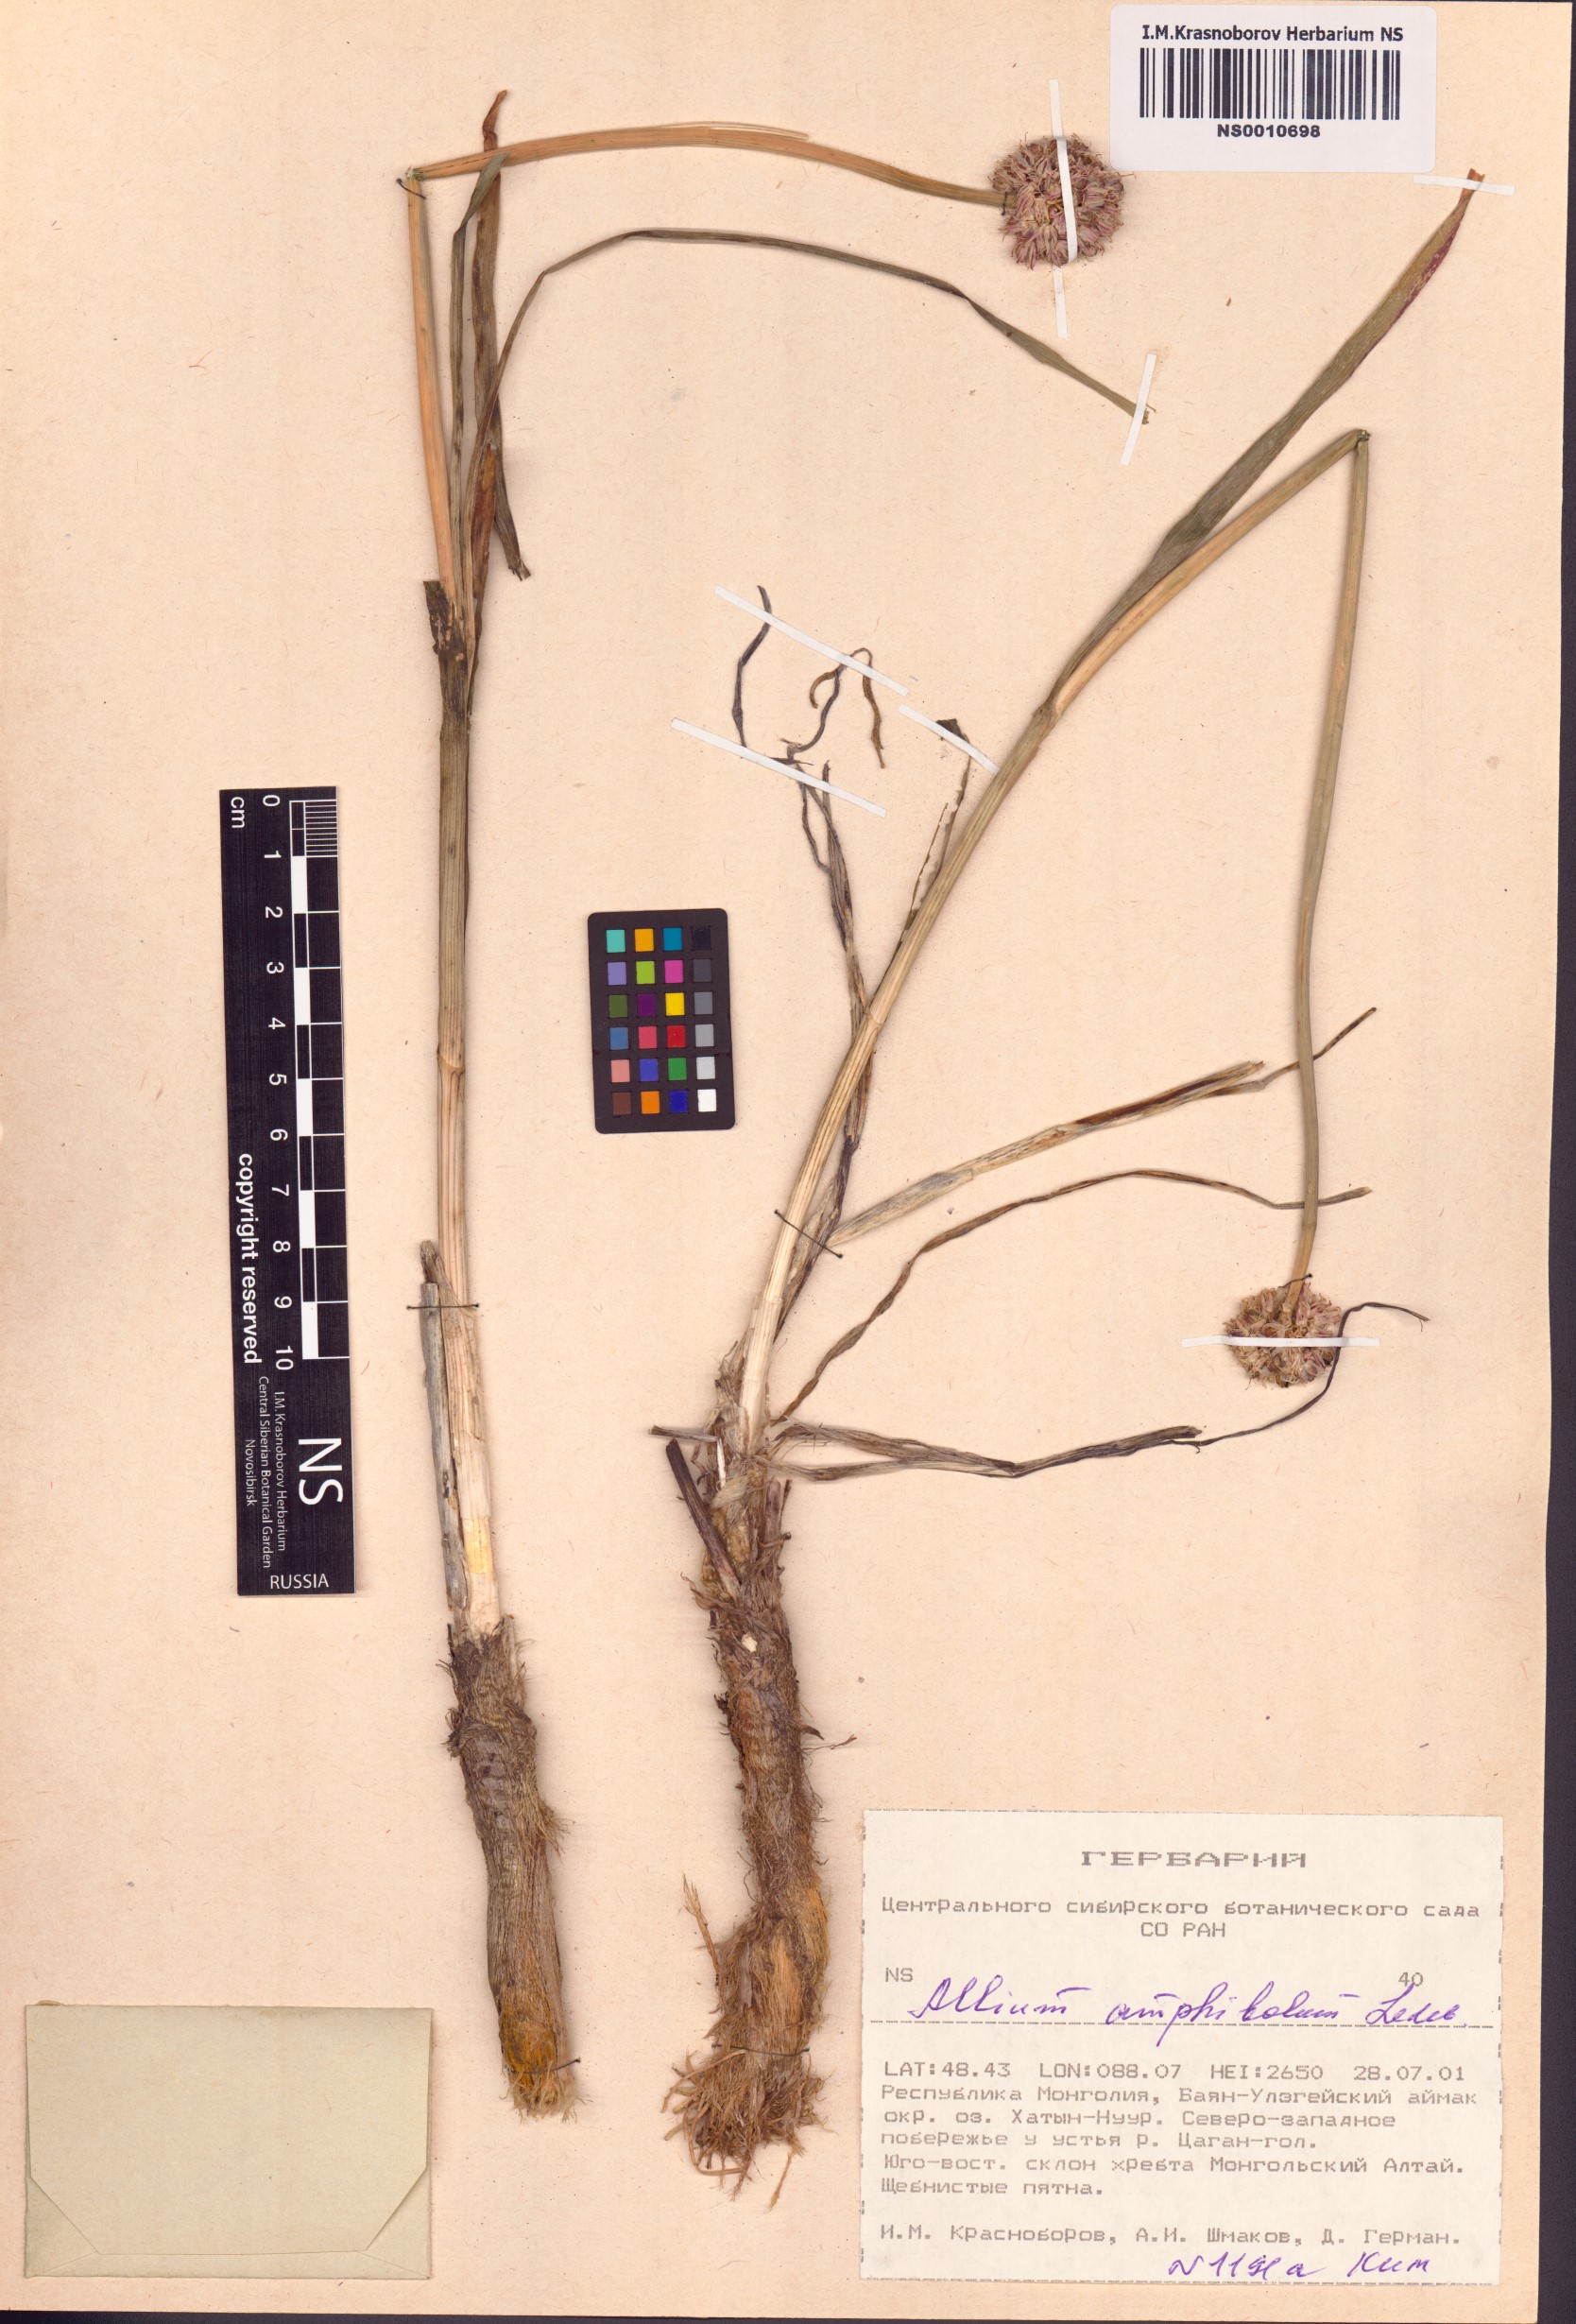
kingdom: Plantae
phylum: Tracheophyta
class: Liliopsida
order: Asparagales
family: Amaryllidaceae
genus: Allium
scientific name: Allium amphibolum
